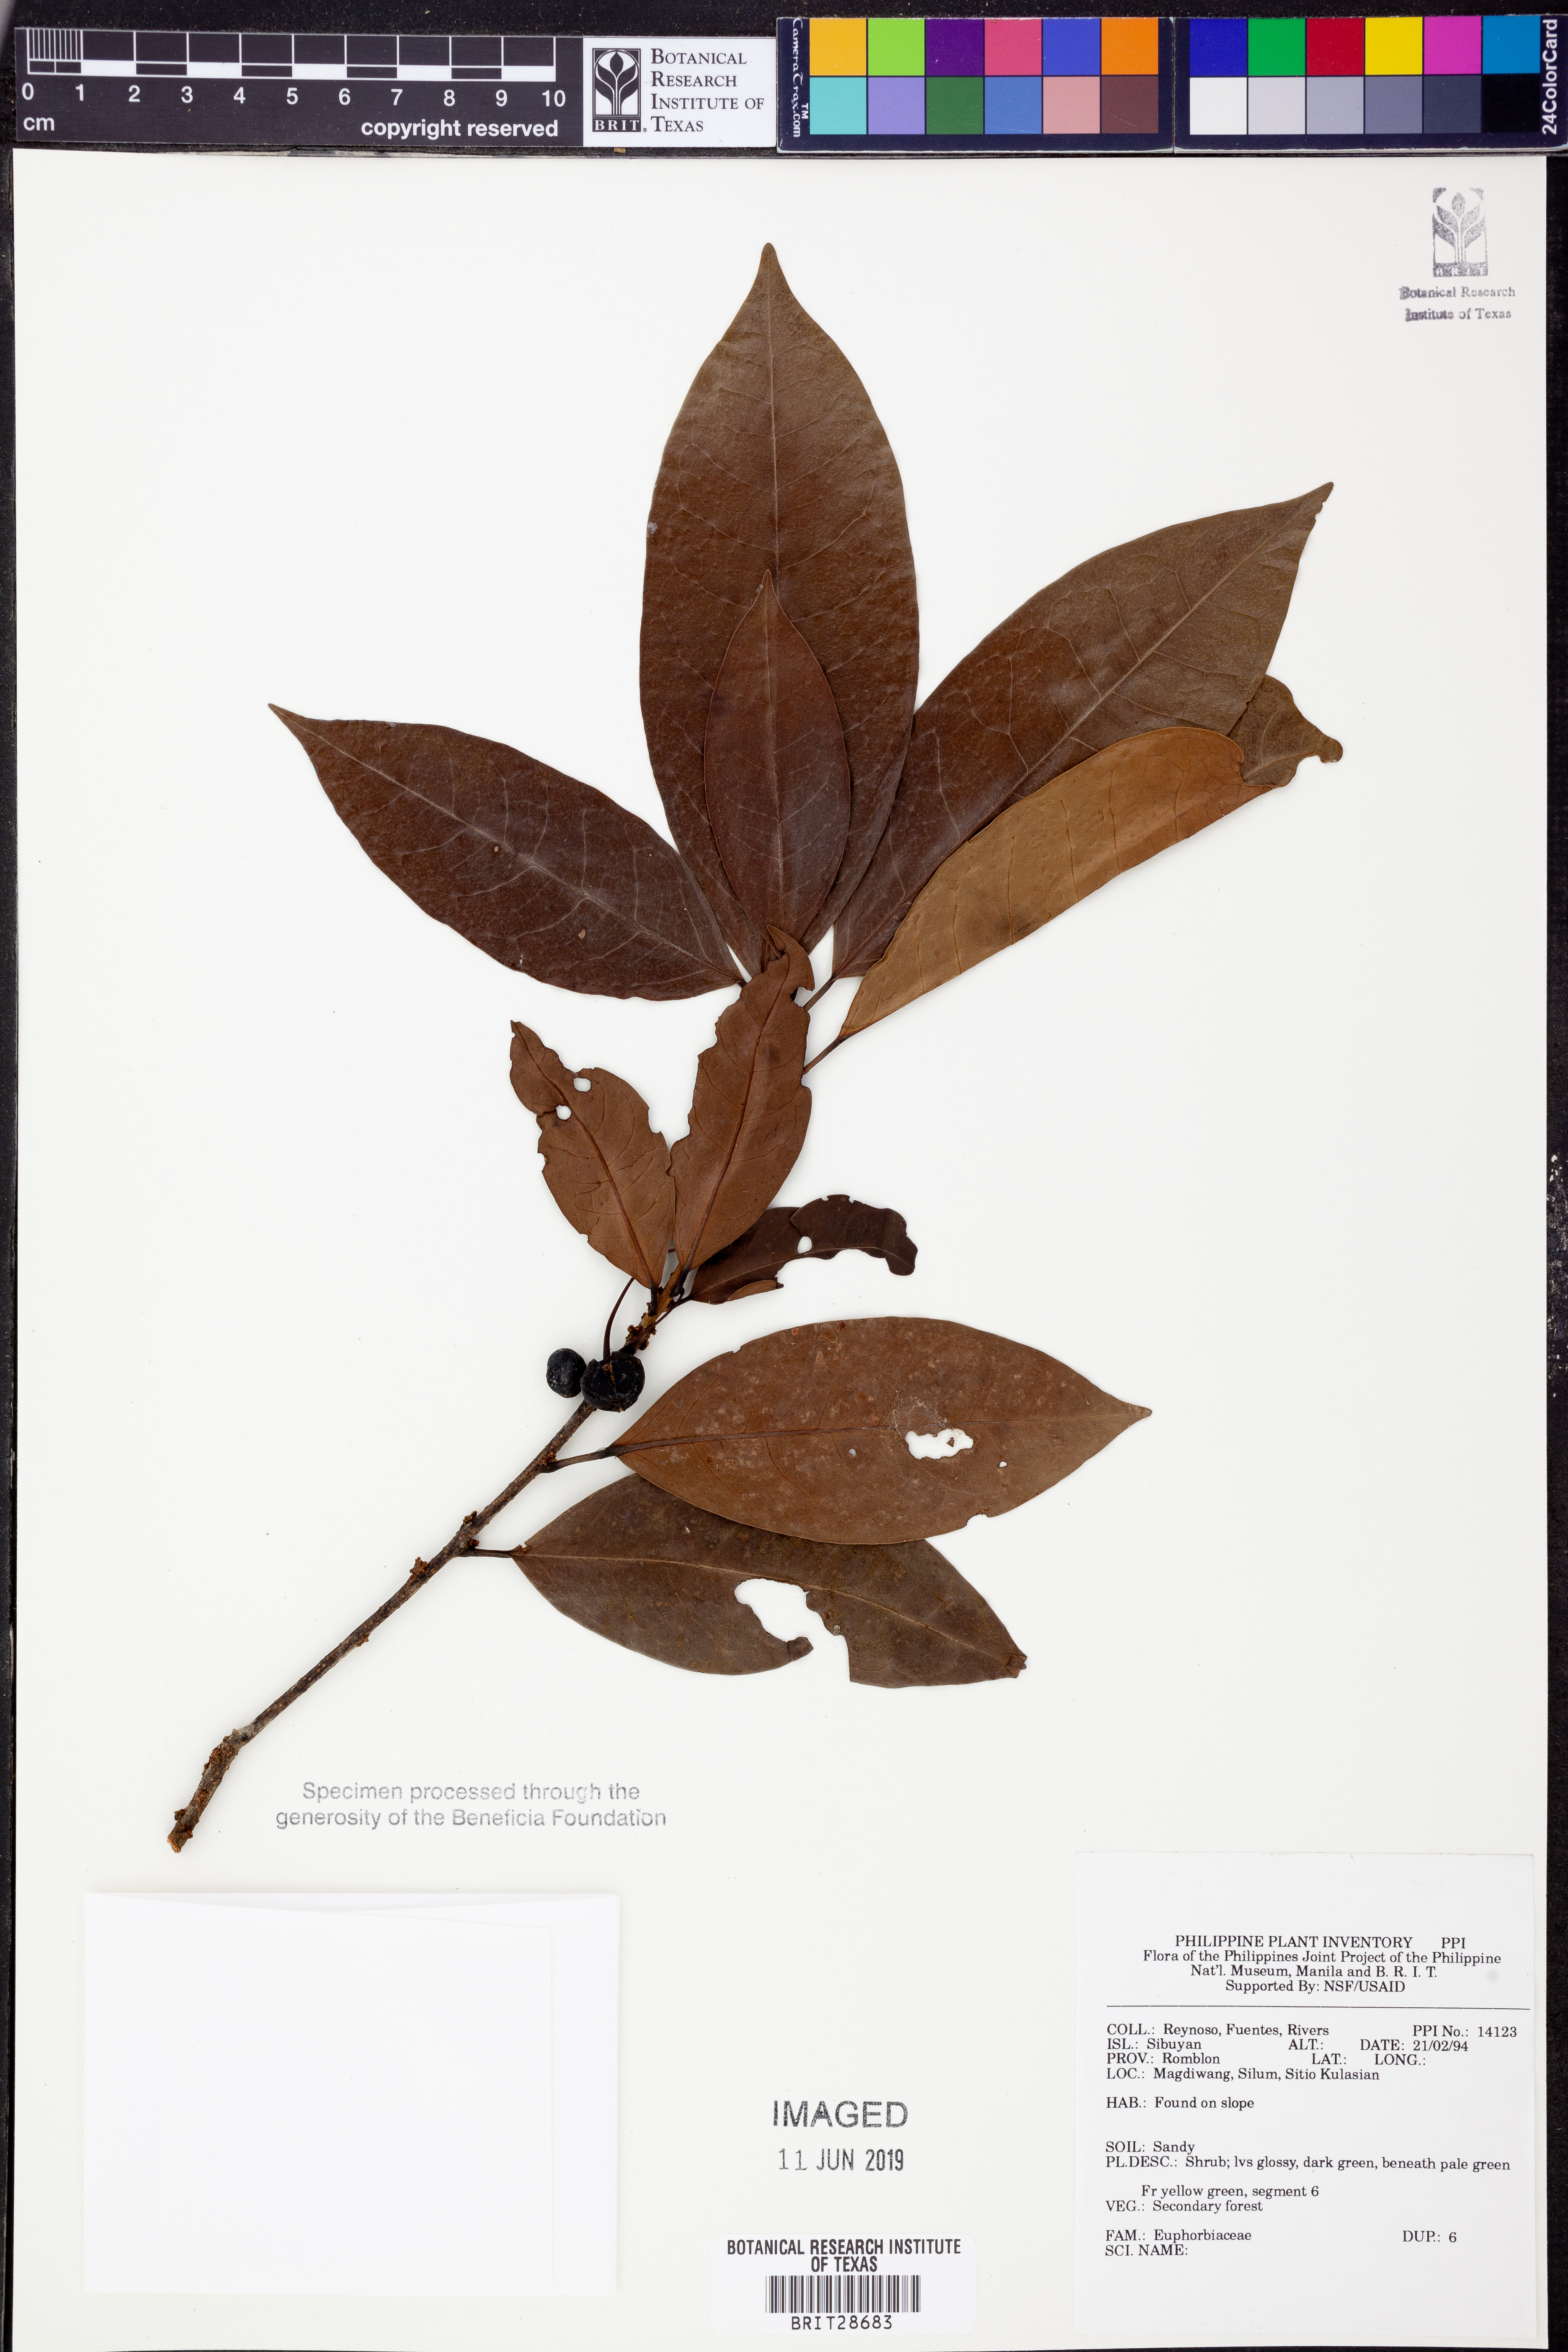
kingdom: Plantae
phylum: Tracheophyta
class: Magnoliopsida
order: Malpighiales
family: Euphorbiaceae
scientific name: Euphorbiaceae
